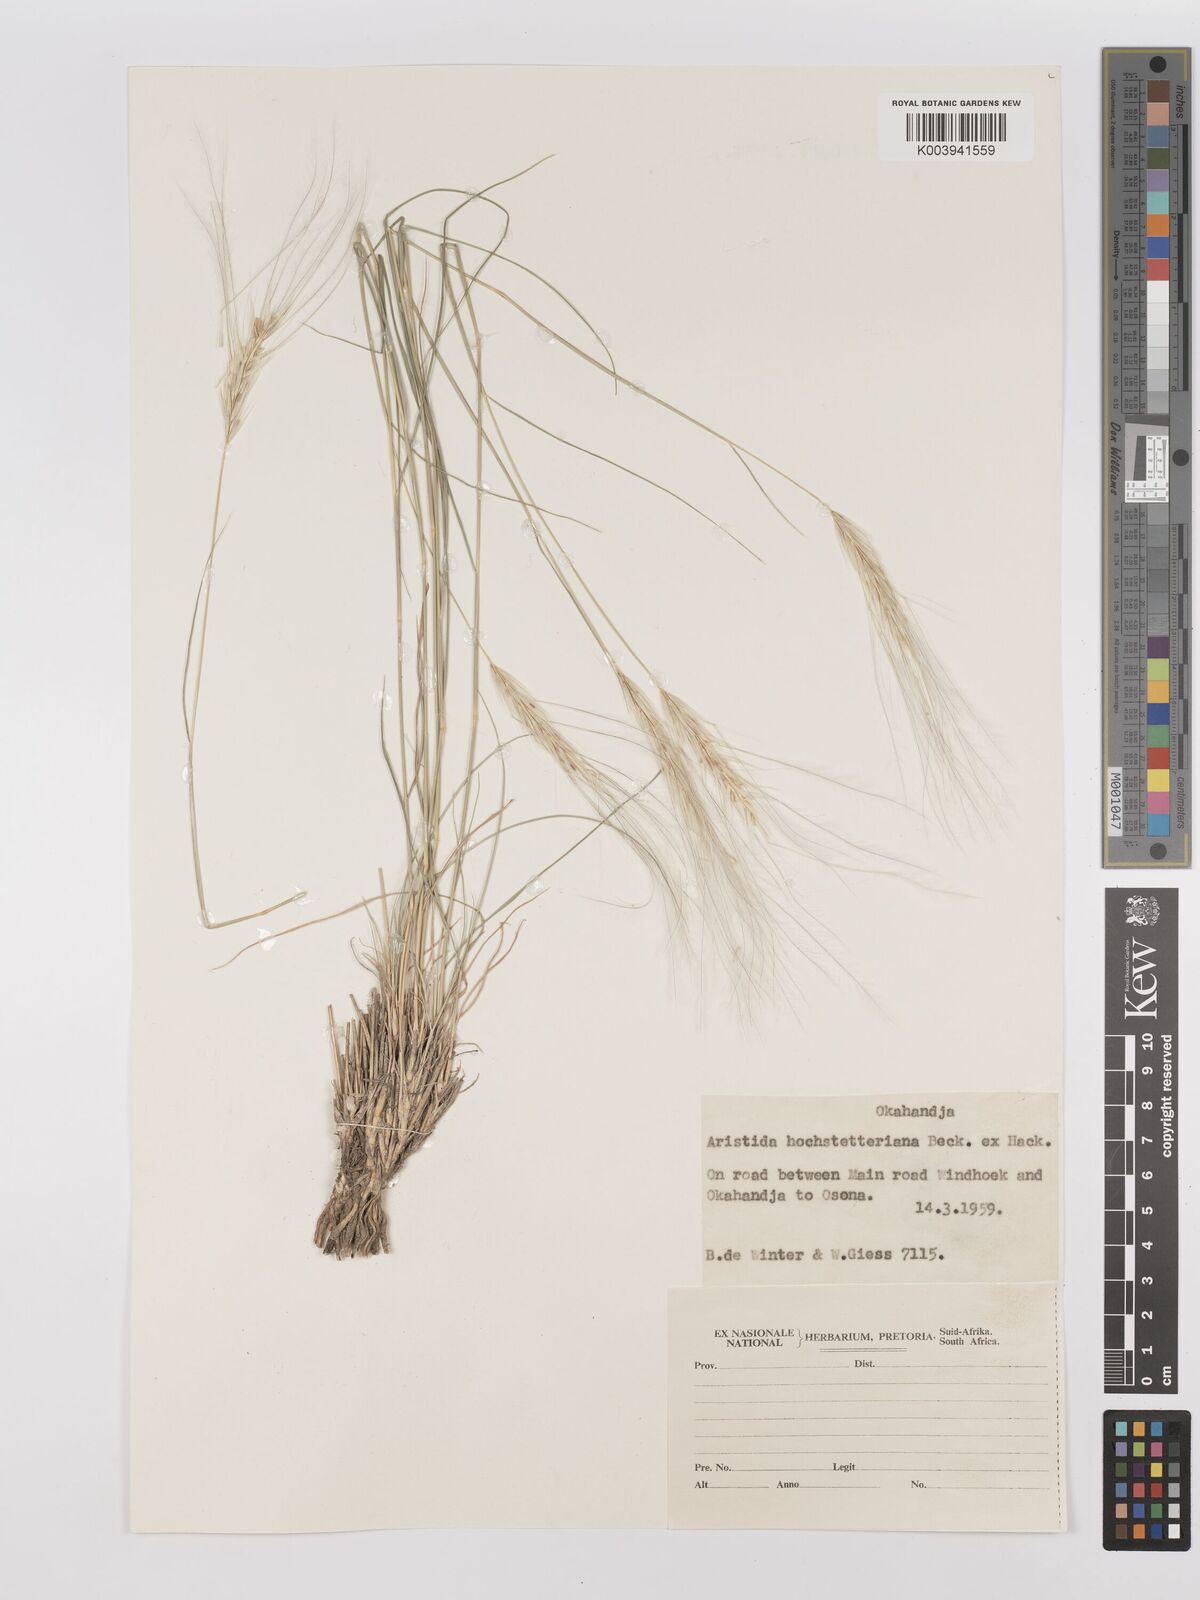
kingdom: Plantae
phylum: Tracheophyta
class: Liliopsida
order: Poales
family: Poaceae
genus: Stipagrostis
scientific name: Stipagrostis hochstetteriana
